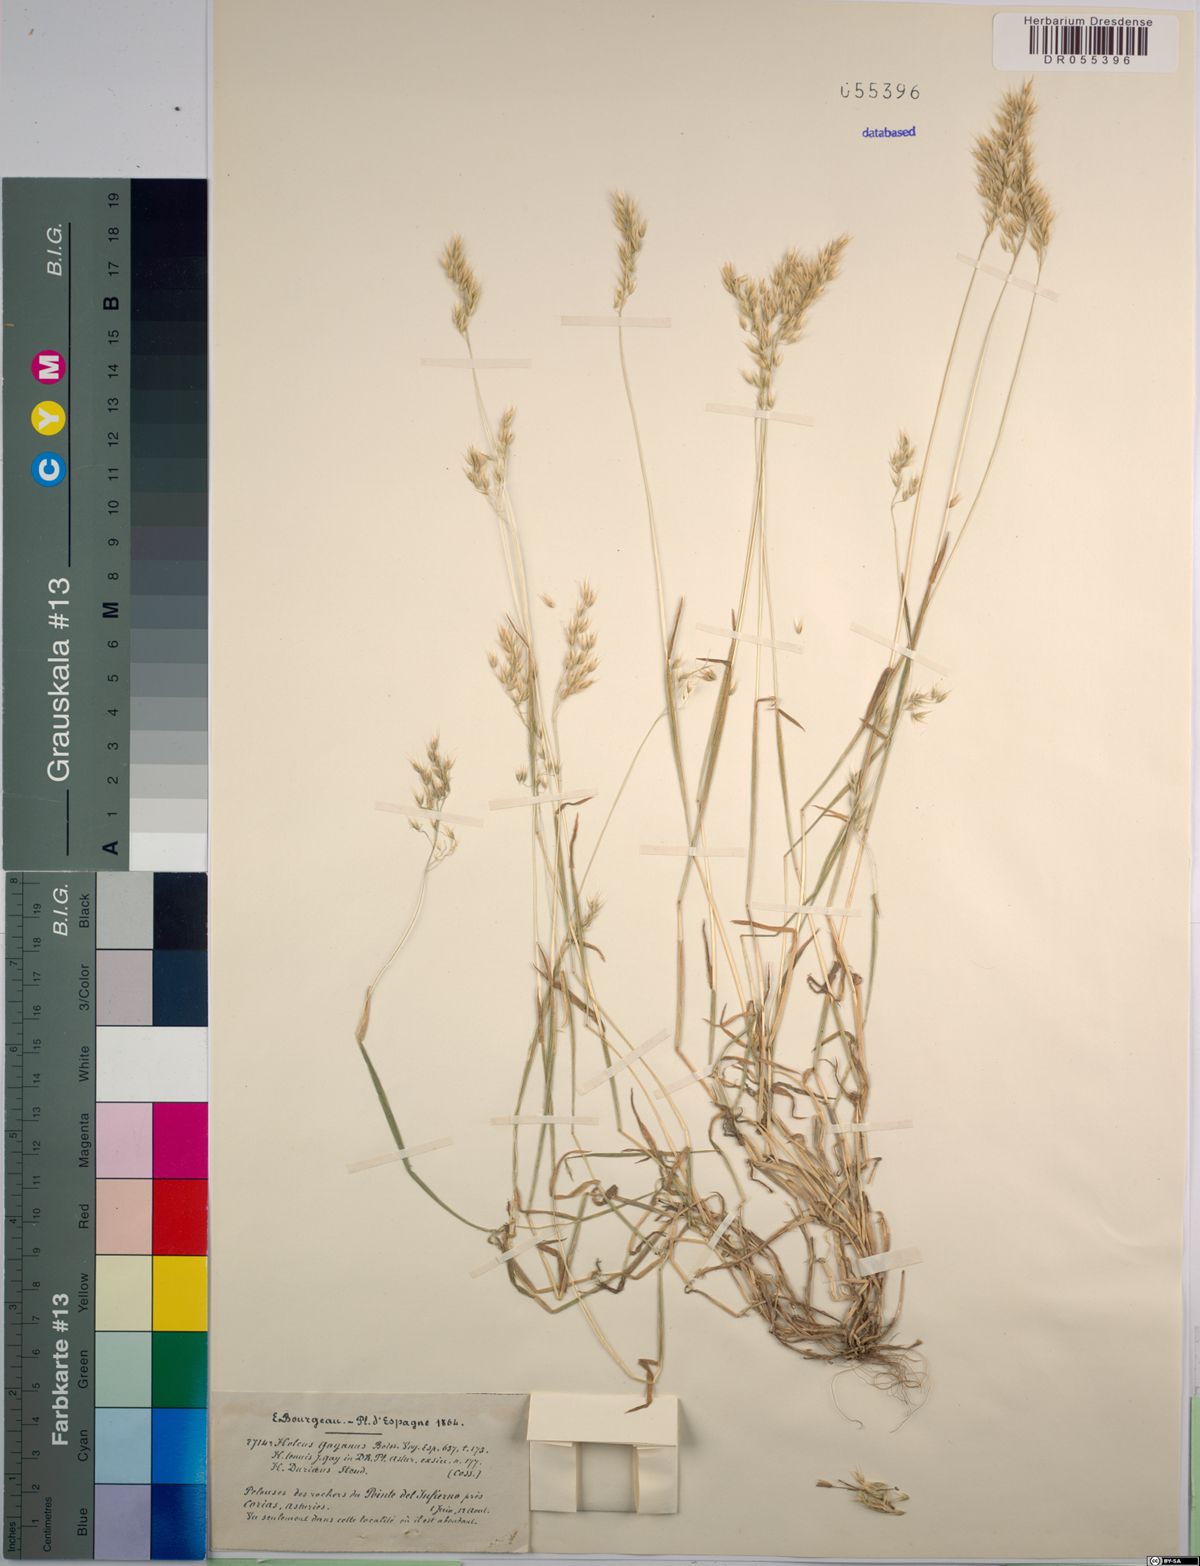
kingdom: Plantae
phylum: Tracheophyta
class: Liliopsida
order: Poales
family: Poaceae
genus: Holcus
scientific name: Holcus gayanus
